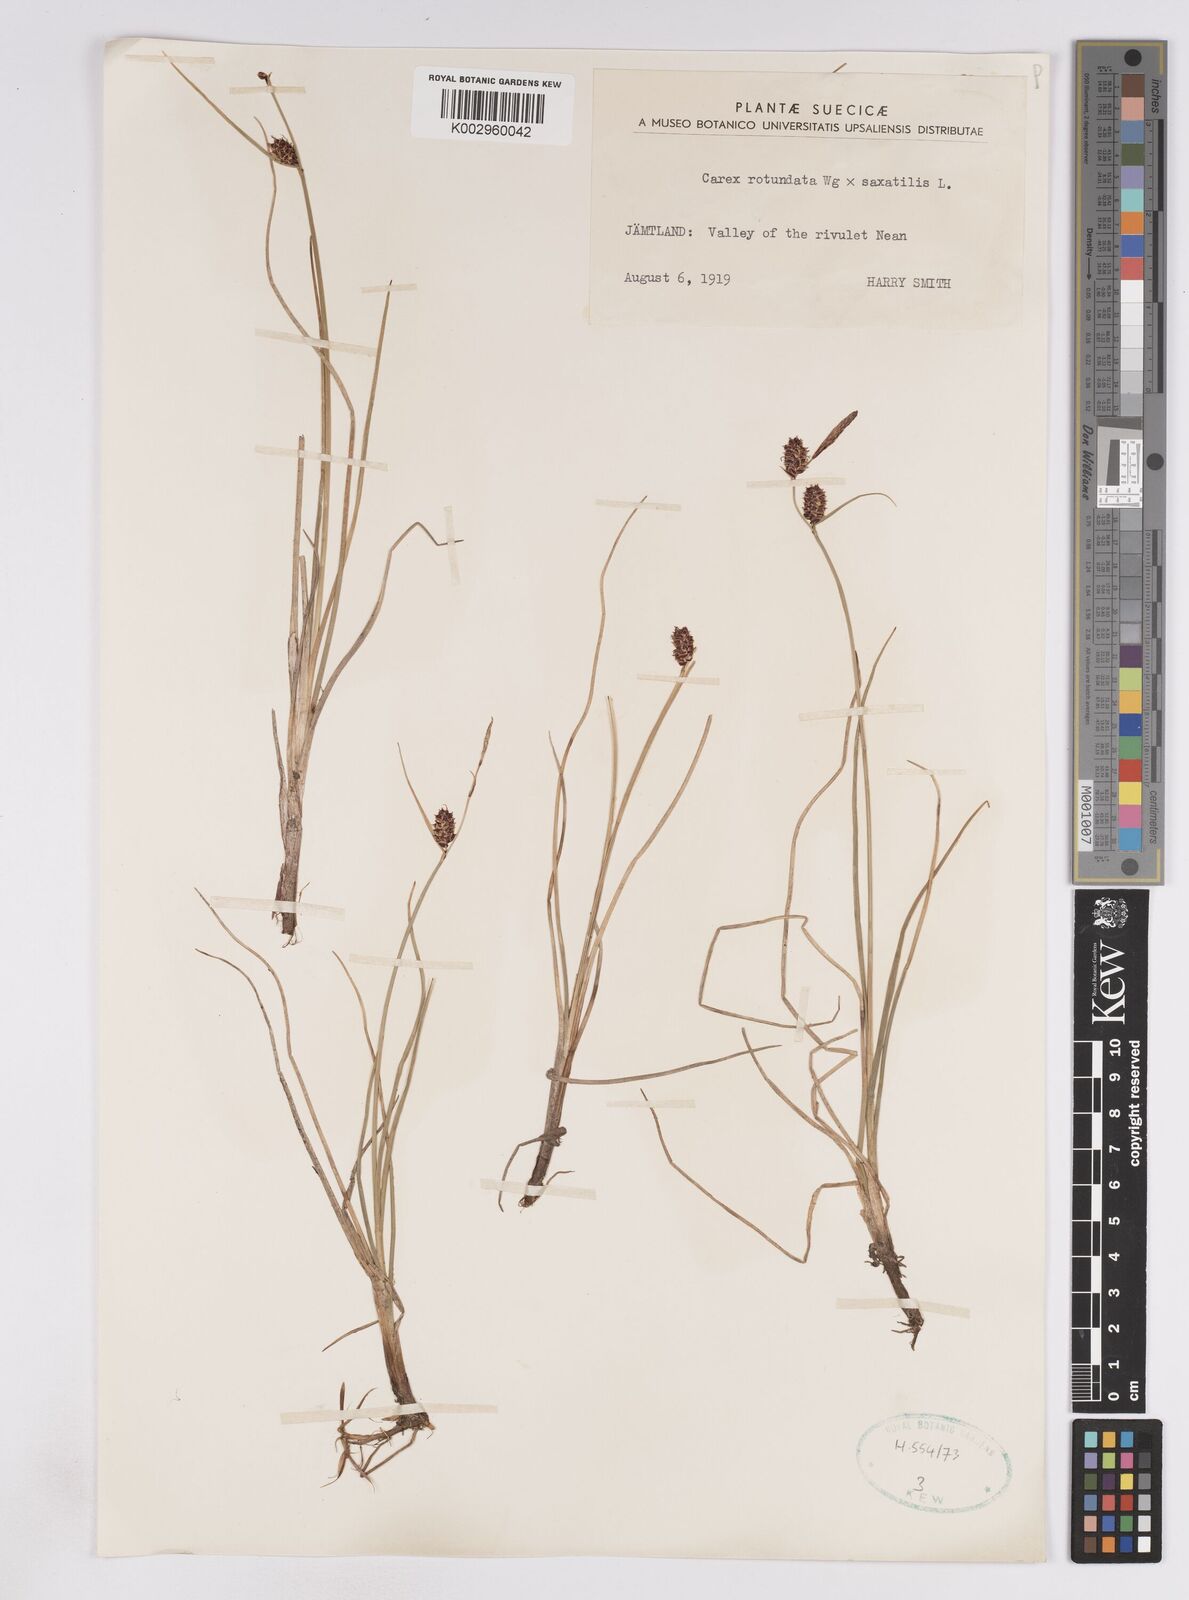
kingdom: Plantae
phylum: Tracheophyta
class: Liliopsida
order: Poales
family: Cyperaceae
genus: Carex
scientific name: Carex
